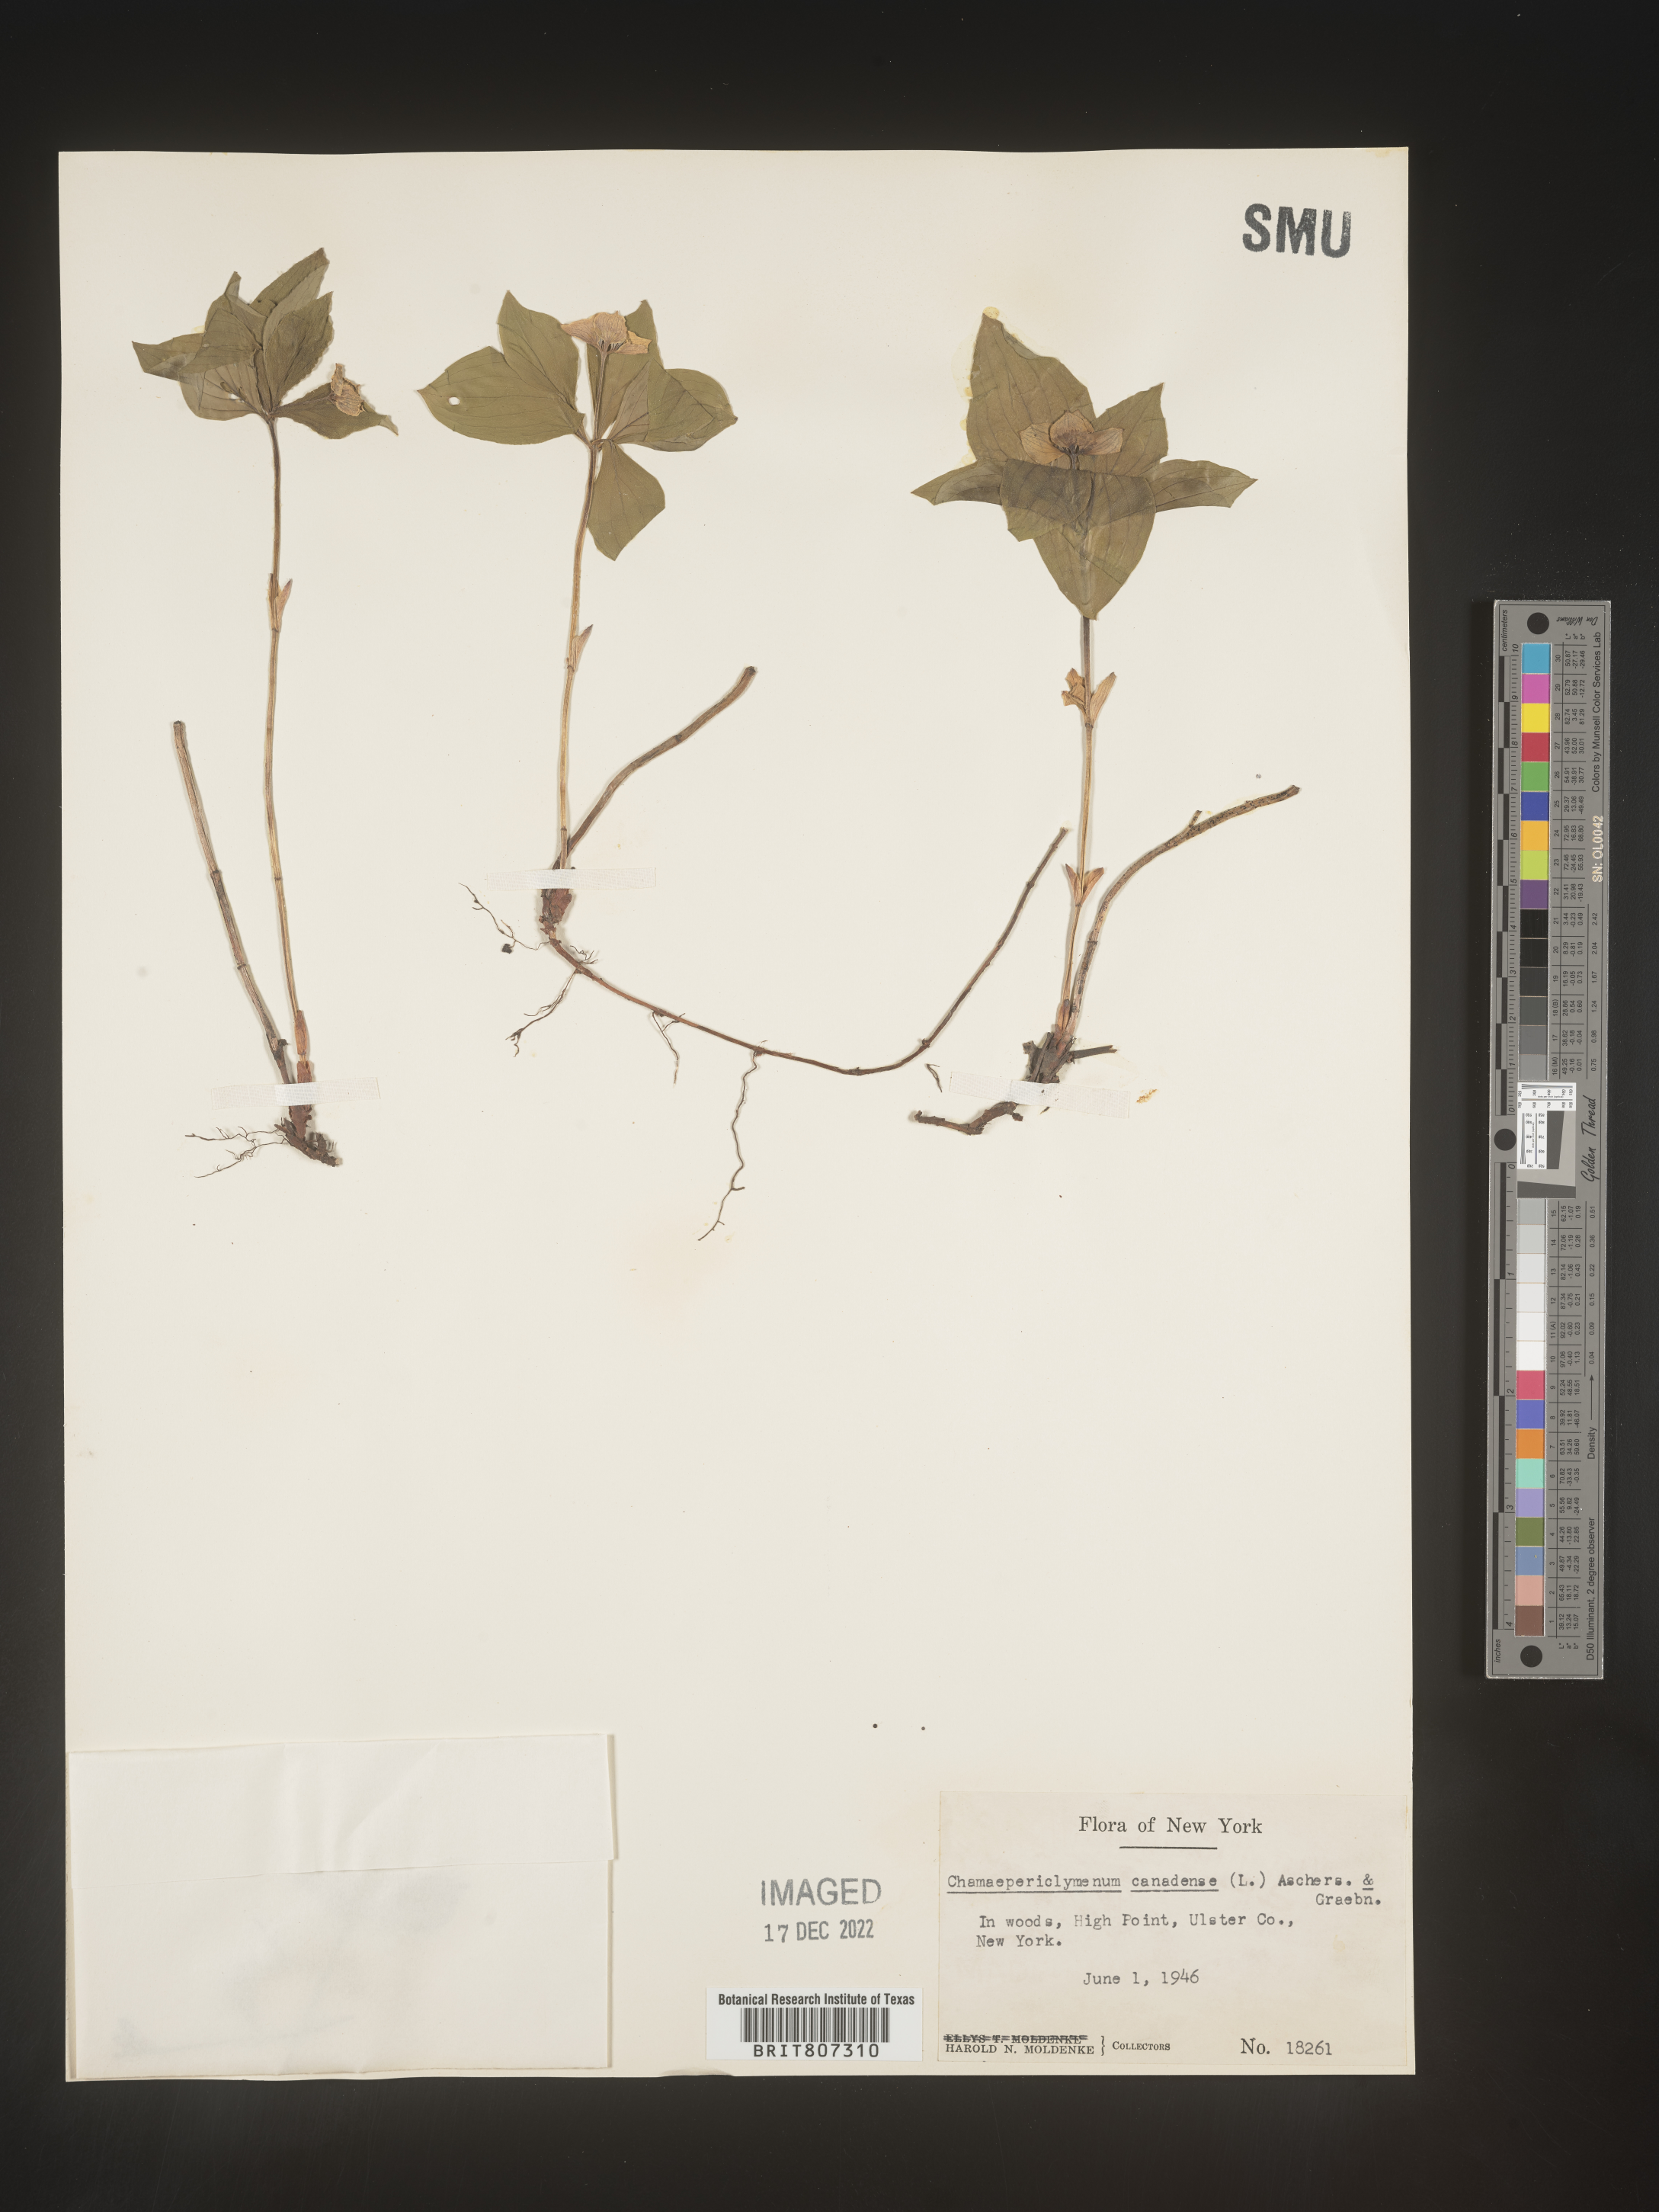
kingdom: Plantae
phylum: Tracheophyta
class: Magnoliopsida
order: Cornales
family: Cornaceae
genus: Cornus
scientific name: Cornus canadensis
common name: Creeping dogwood
